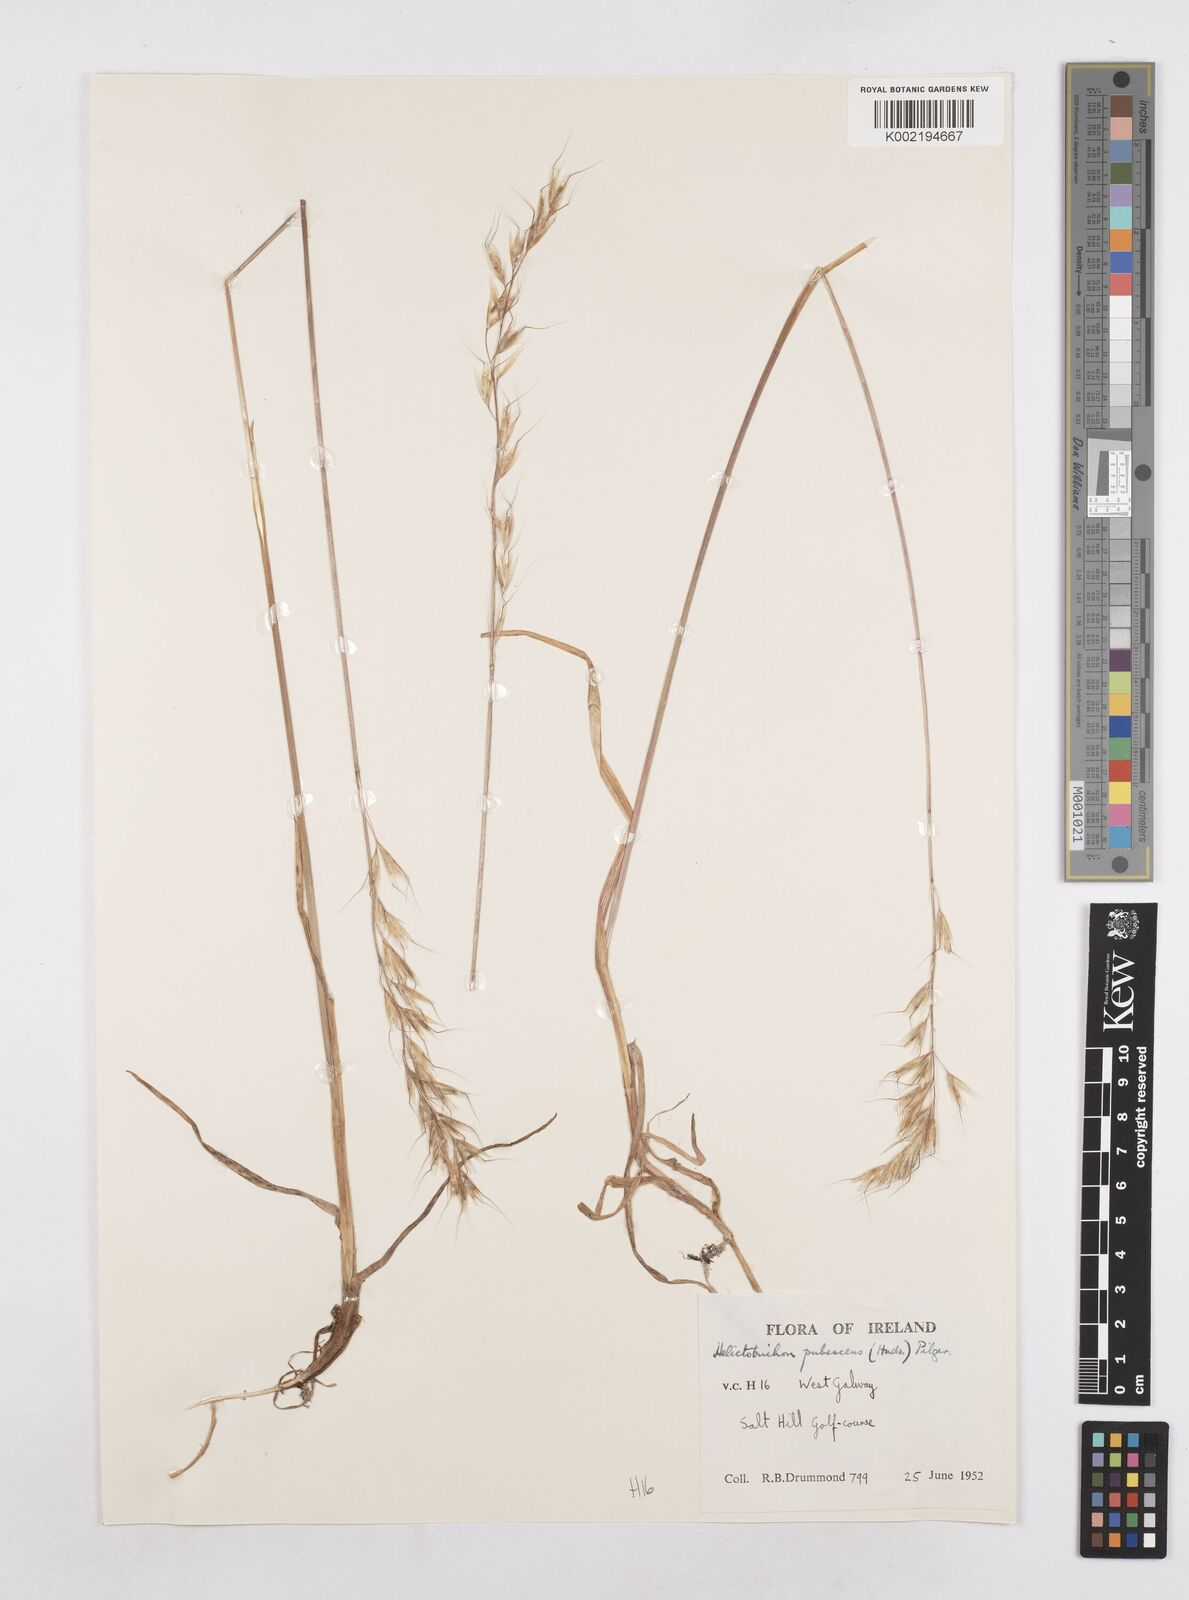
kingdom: Plantae
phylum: Tracheophyta
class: Liliopsida
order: Poales
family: Poaceae
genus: Avenula
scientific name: Avenula pubescens
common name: Downy alpine oatgrass
